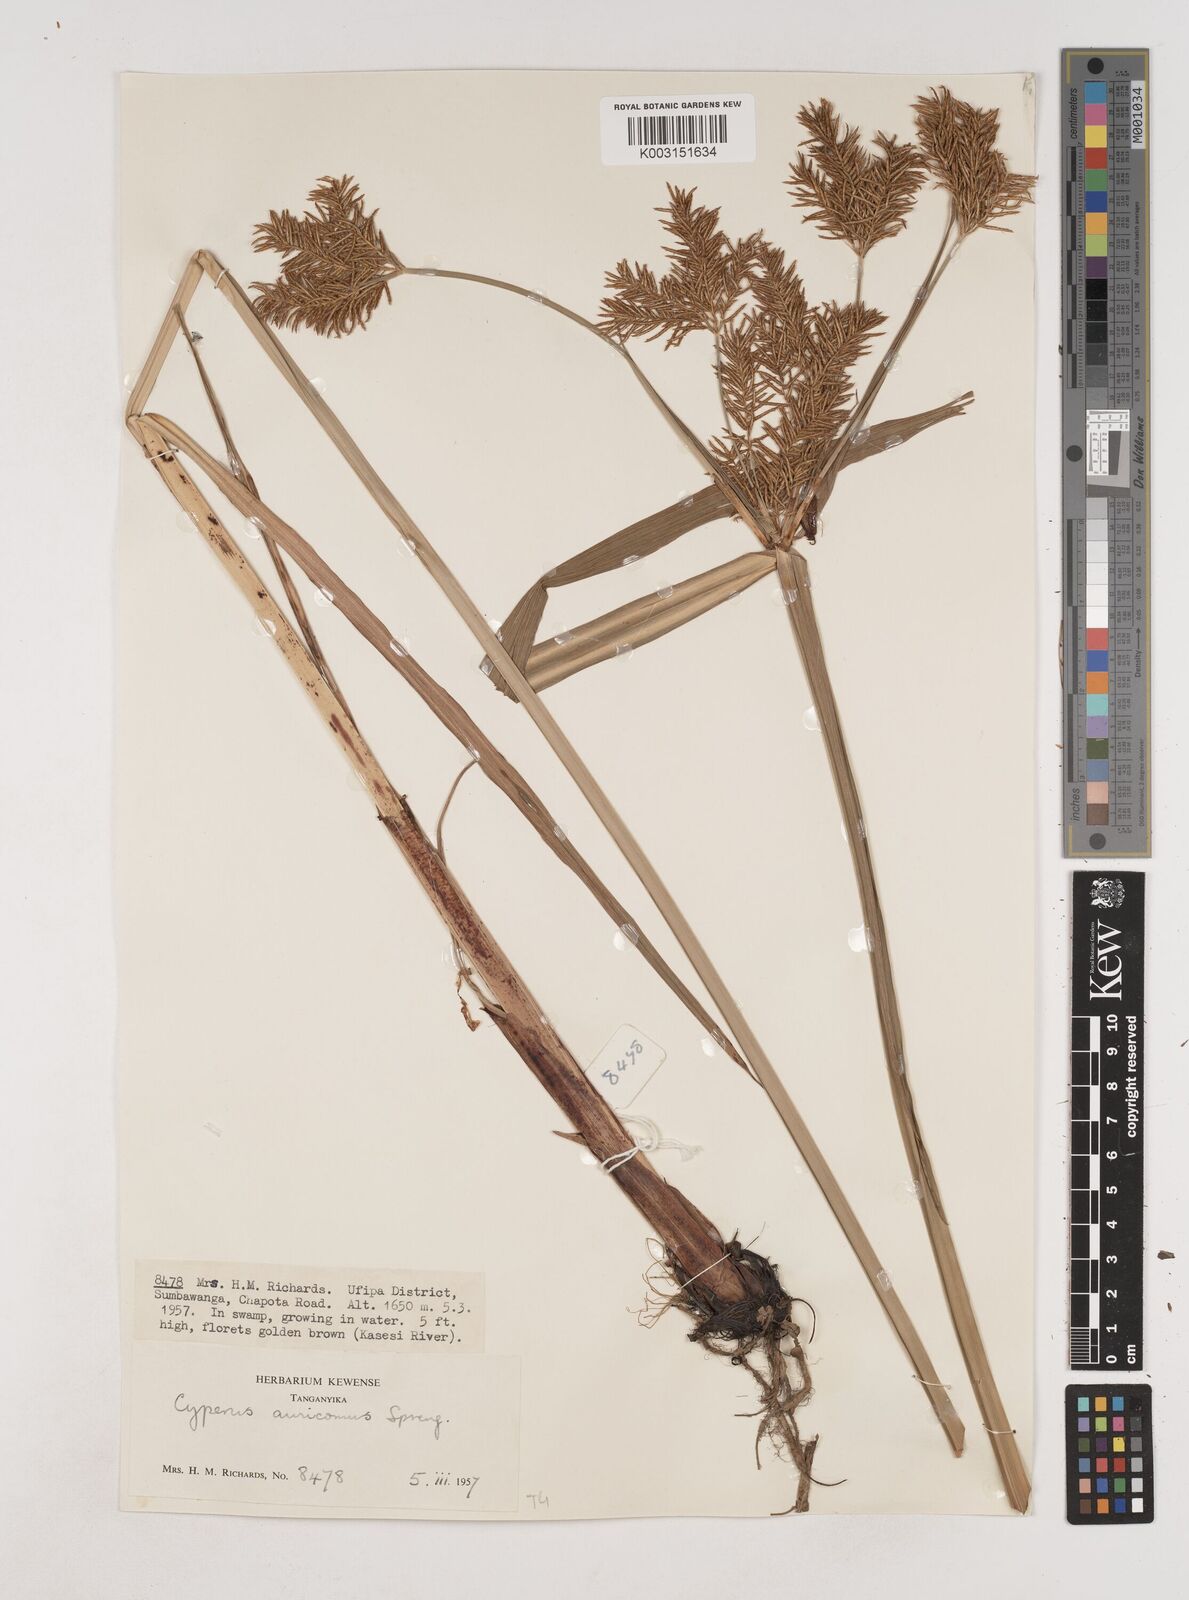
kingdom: Plantae
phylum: Tracheophyta
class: Liliopsida
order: Poales
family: Cyperaceae
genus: Cyperus
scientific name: Cyperus digitatus
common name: Finger flatsedge
